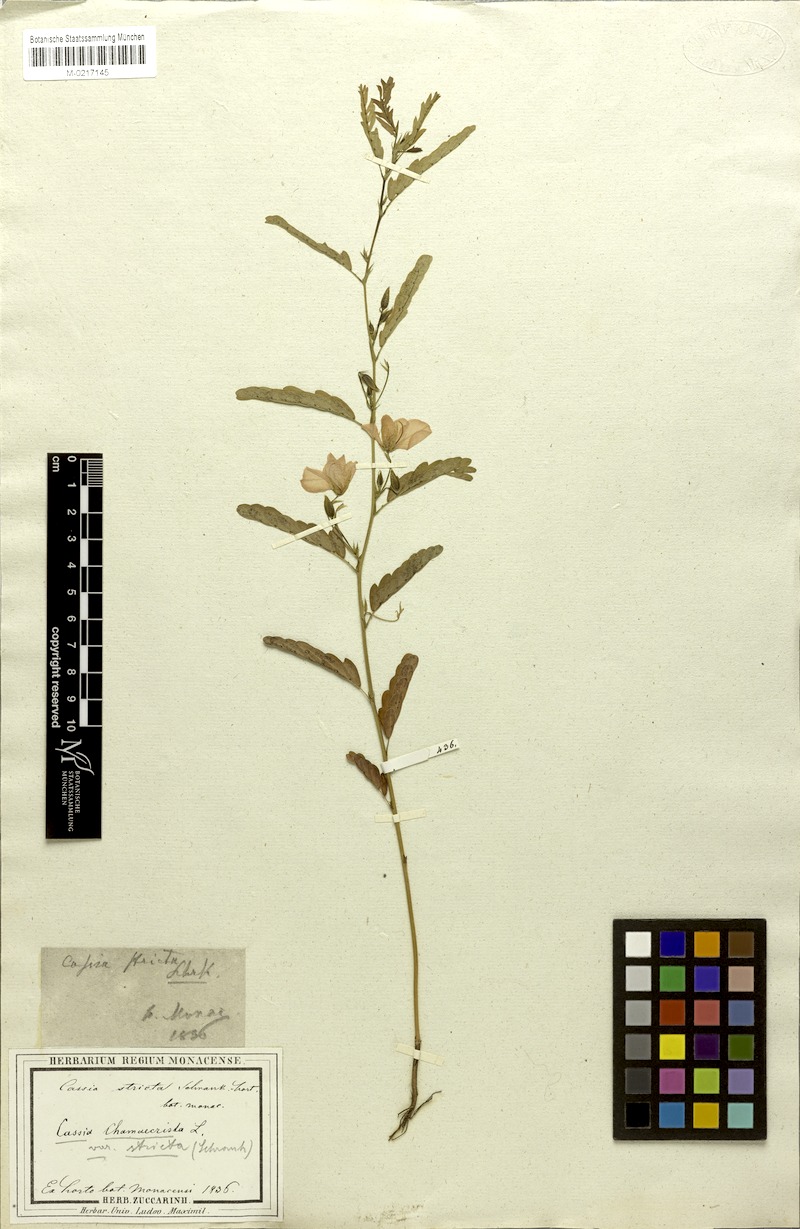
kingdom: Plantae
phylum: Tracheophyta
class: Magnoliopsida
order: Fabales
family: Fabaceae
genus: Chamaecrista
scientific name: Chamaecrista fasciculata
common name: Golden cassia
